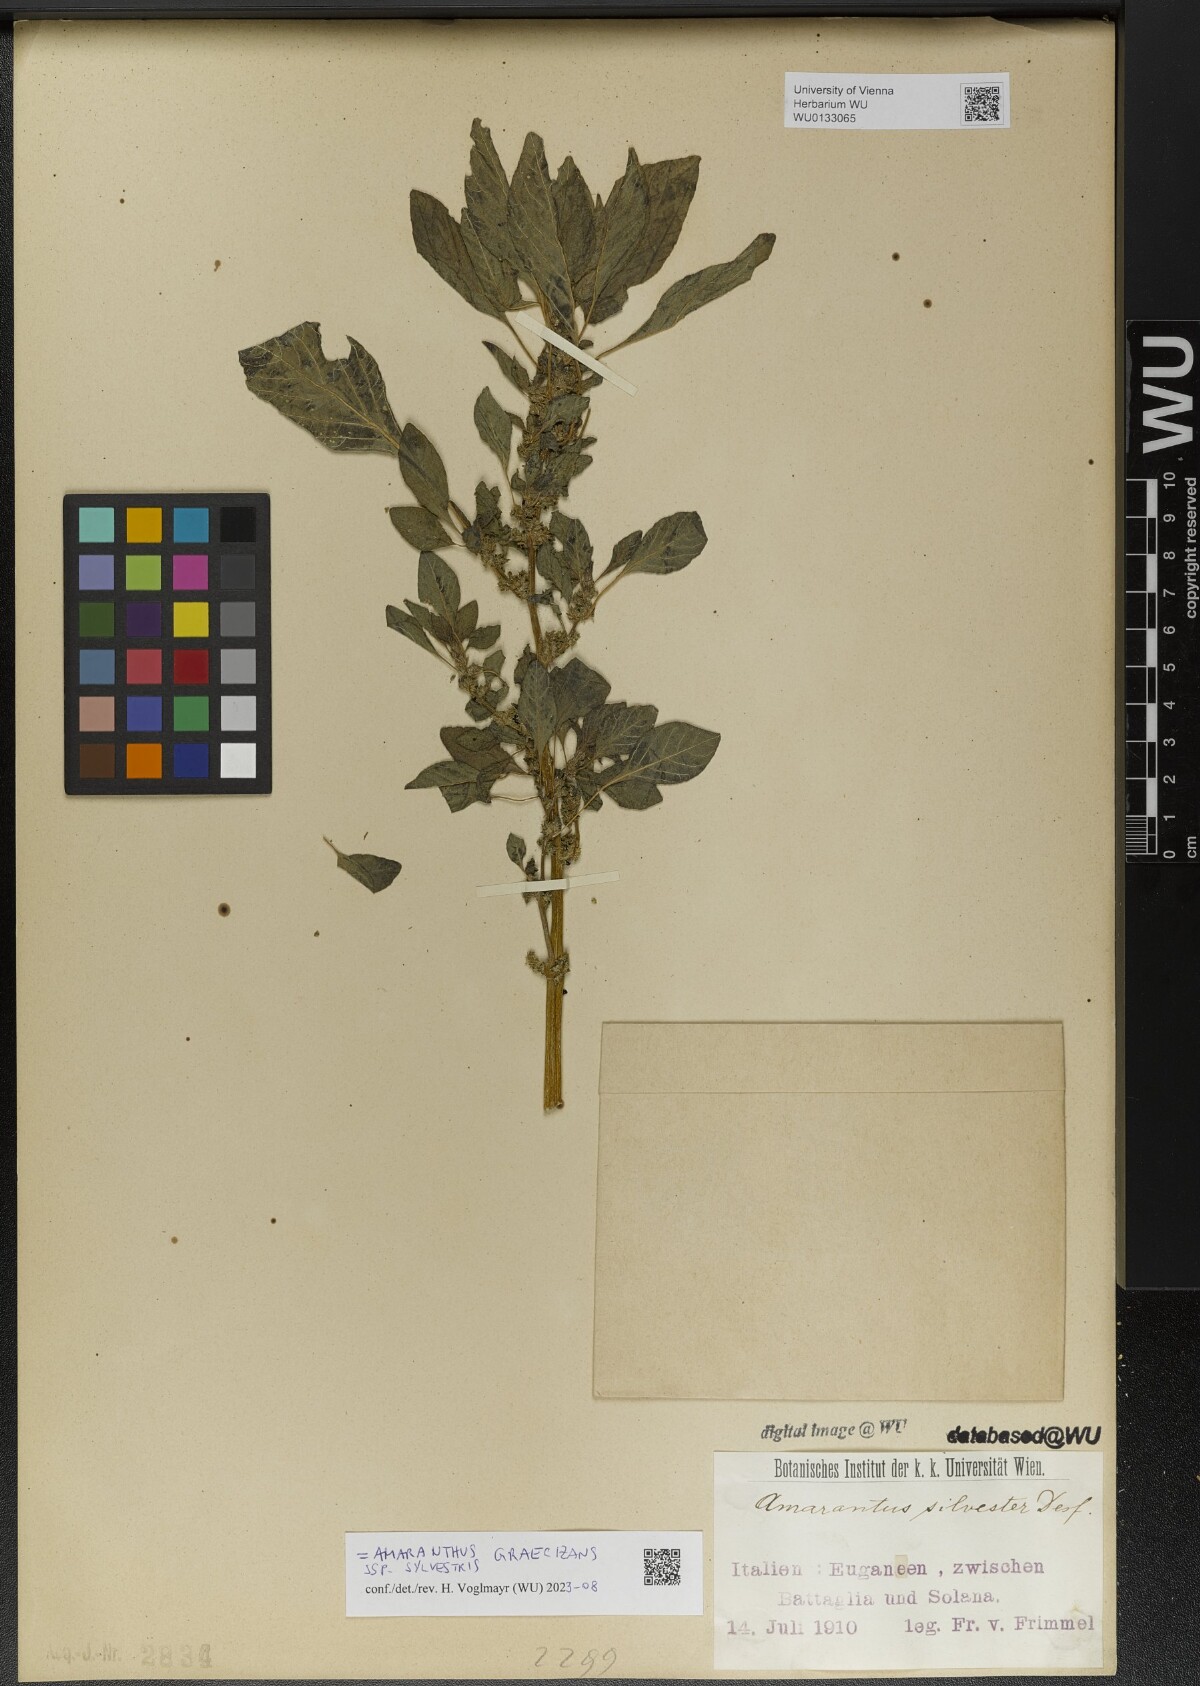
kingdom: Plantae
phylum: Tracheophyta
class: Magnoliopsida
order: Caryophyllales
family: Amaranthaceae
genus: Amaranthus
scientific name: Amaranthus graecizans
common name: Mediterranean amaranth
